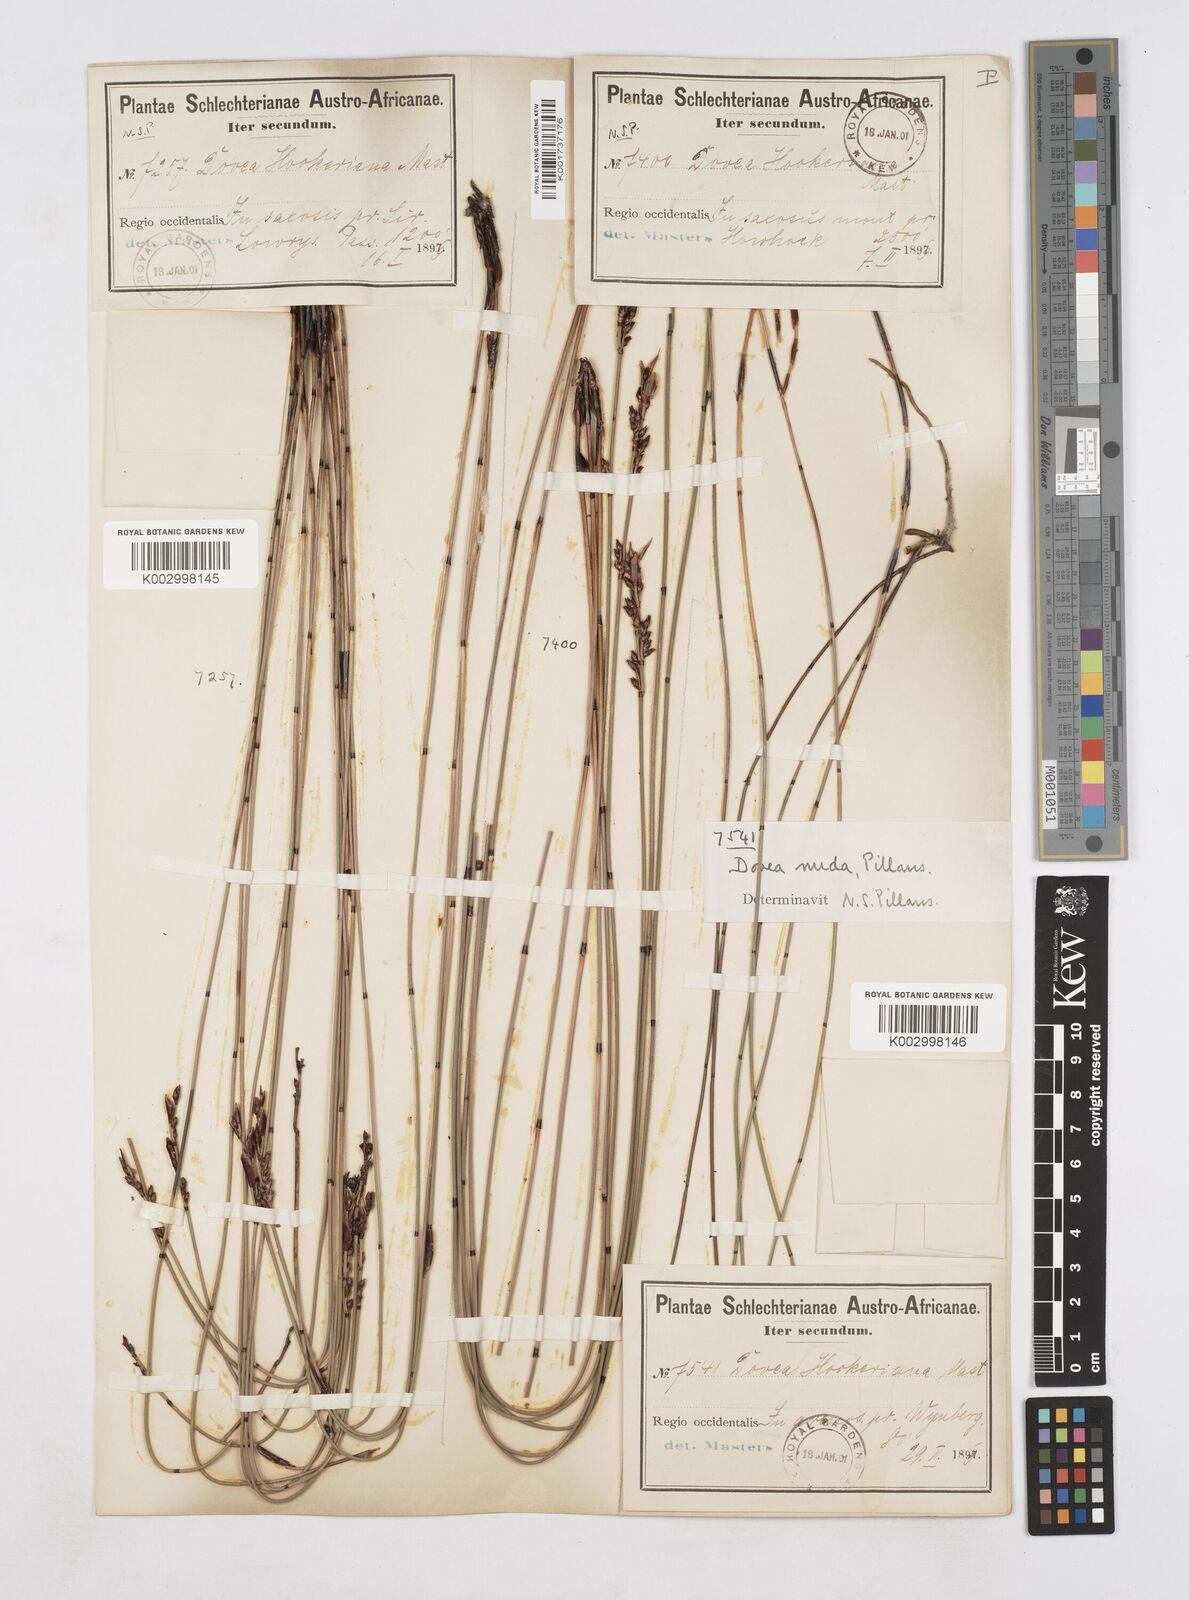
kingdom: Plantae
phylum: Tracheophyta
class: Liliopsida
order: Poales
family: Restionaceae
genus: Elegia
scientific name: Elegia hookeriana
